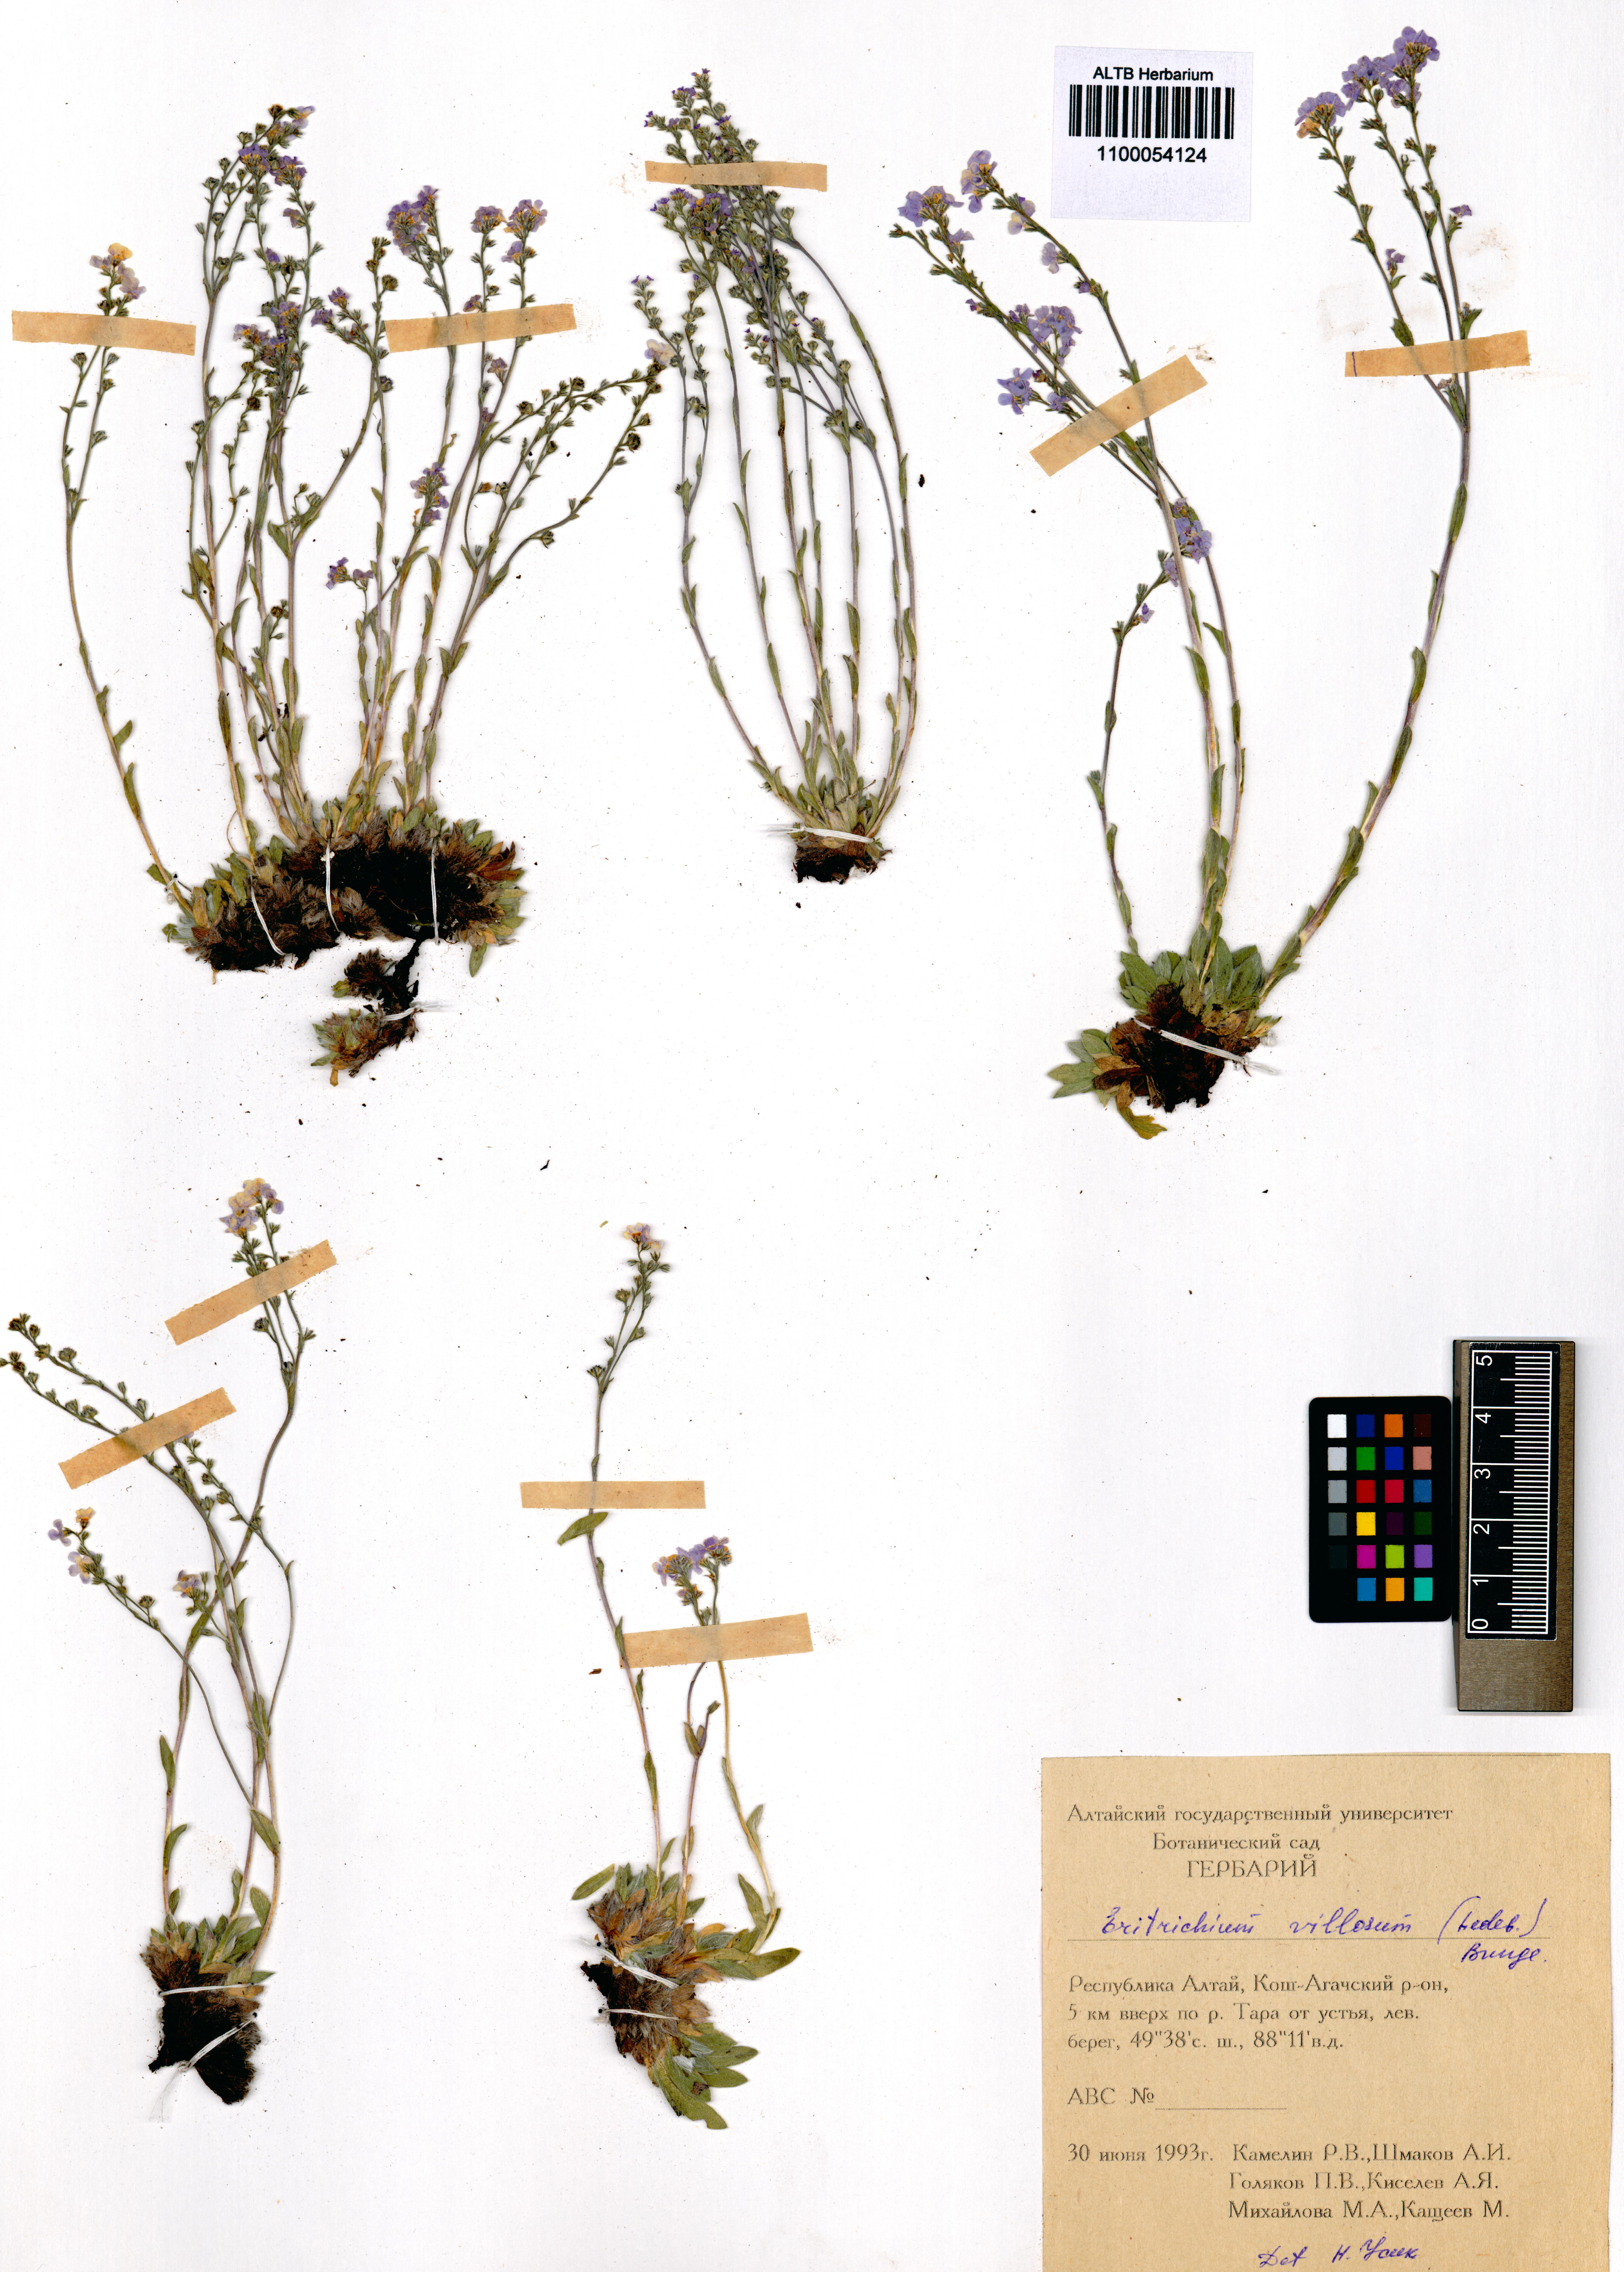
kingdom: Plantae
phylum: Tracheophyta
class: Magnoliopsida
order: Boraginales
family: Boraginaceae
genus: Eritrichium
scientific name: Eritrichium villosum
